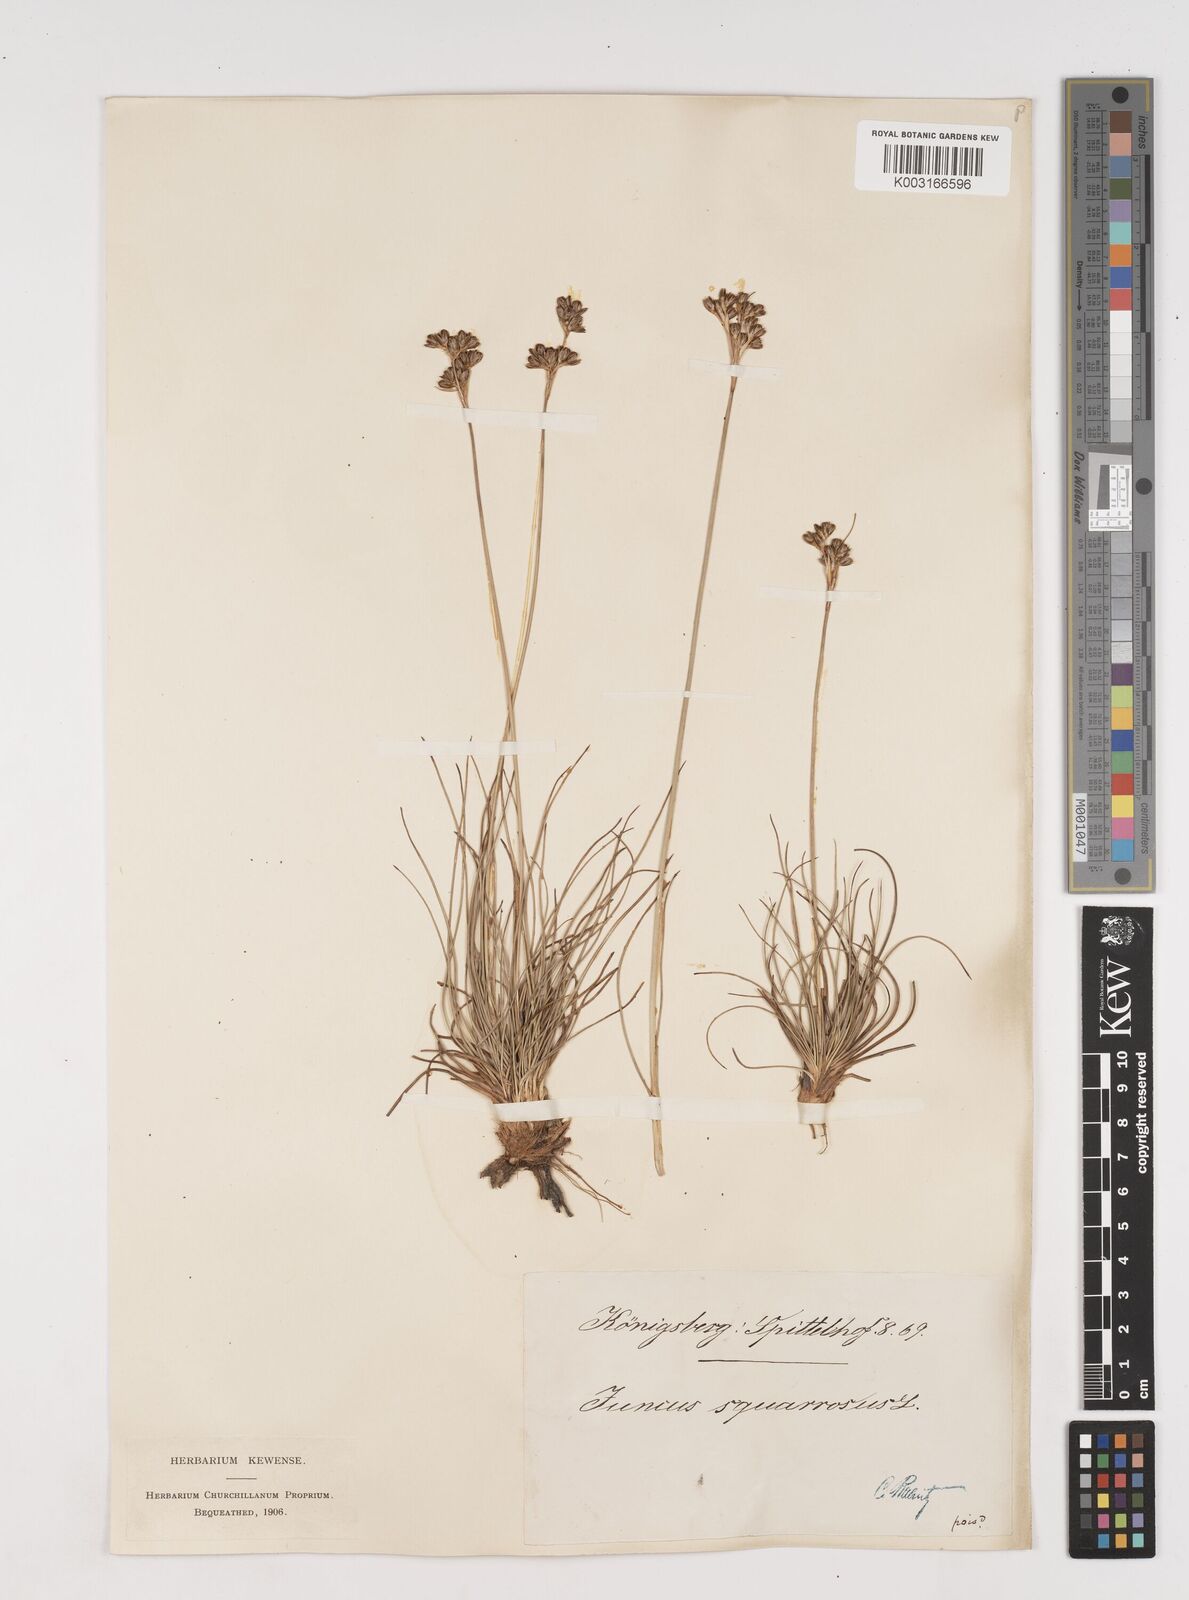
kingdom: Plantae
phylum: Tracheophyta
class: Liliopsida
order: Poales
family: Juncaceae
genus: Juncus
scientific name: Juncus squarrosus
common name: Heath rush
